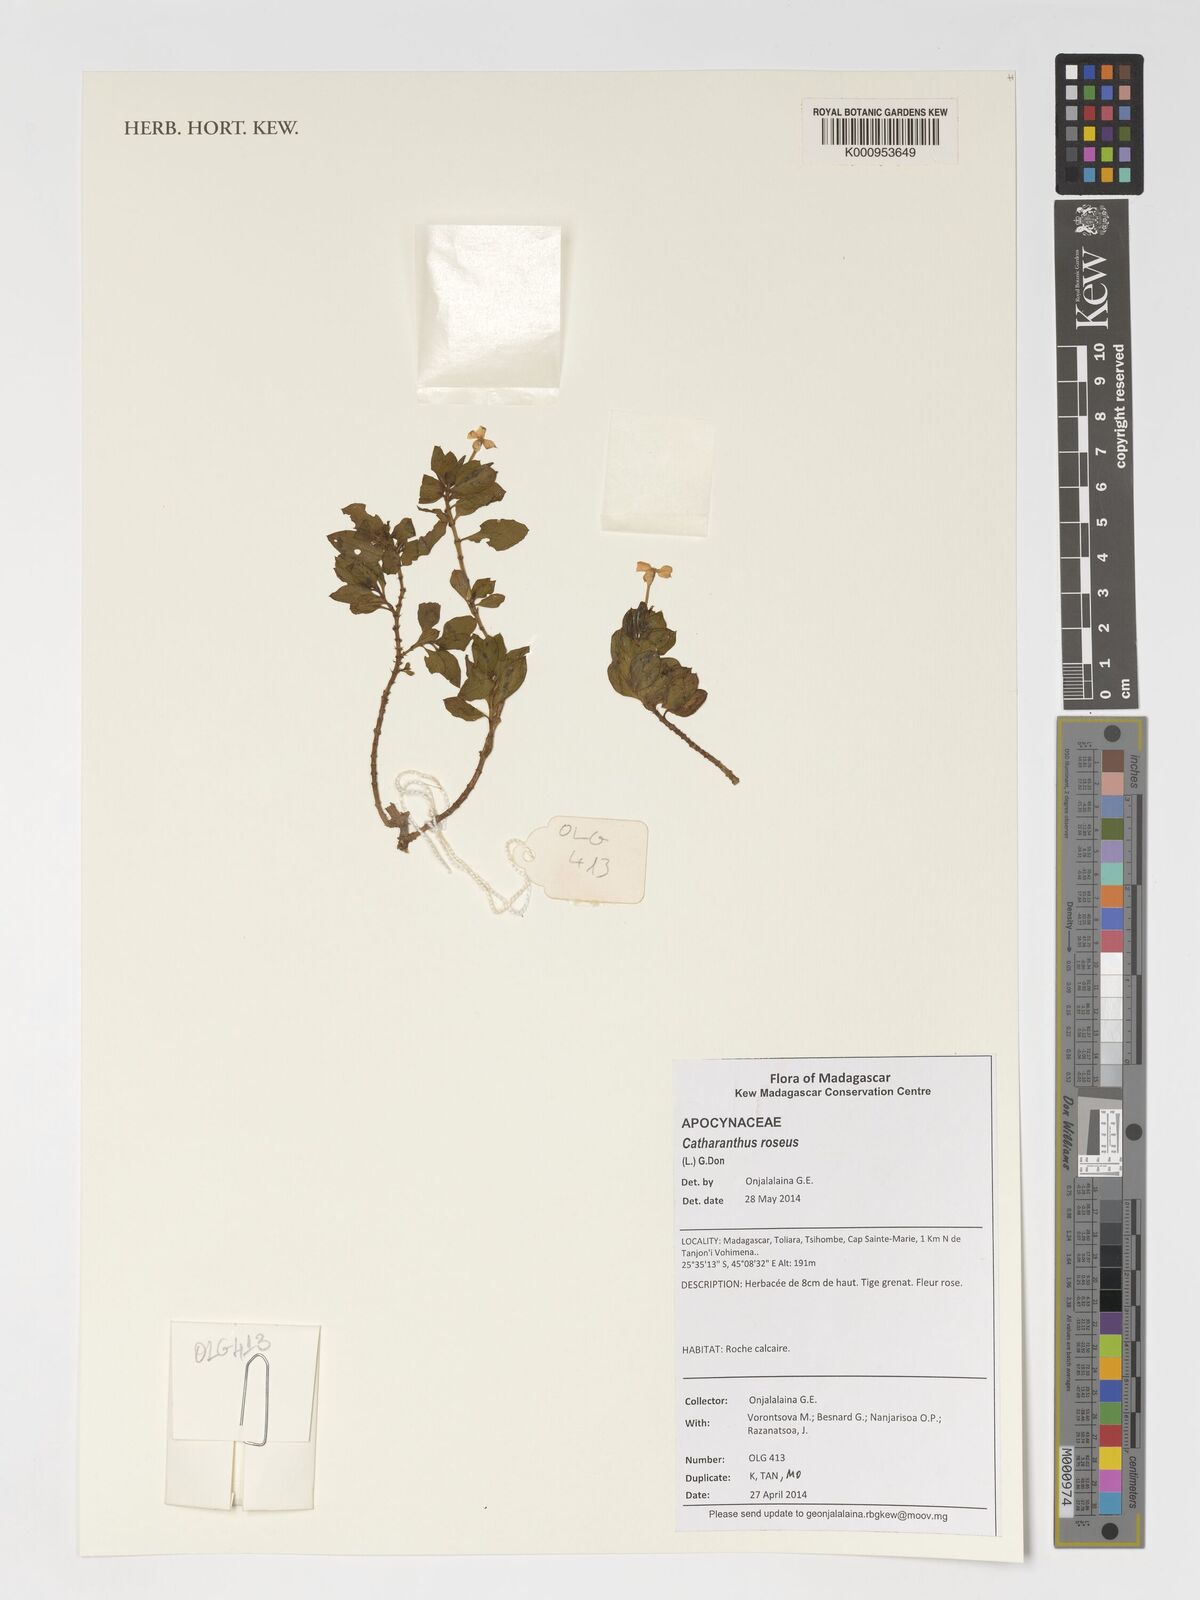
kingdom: Plantae
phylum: Tracheophyta
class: Magnoliopsida
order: Gentianales
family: Apocynaceae
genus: Catharanthus
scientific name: Catharanthus roseus
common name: Madagascar periwinkle
